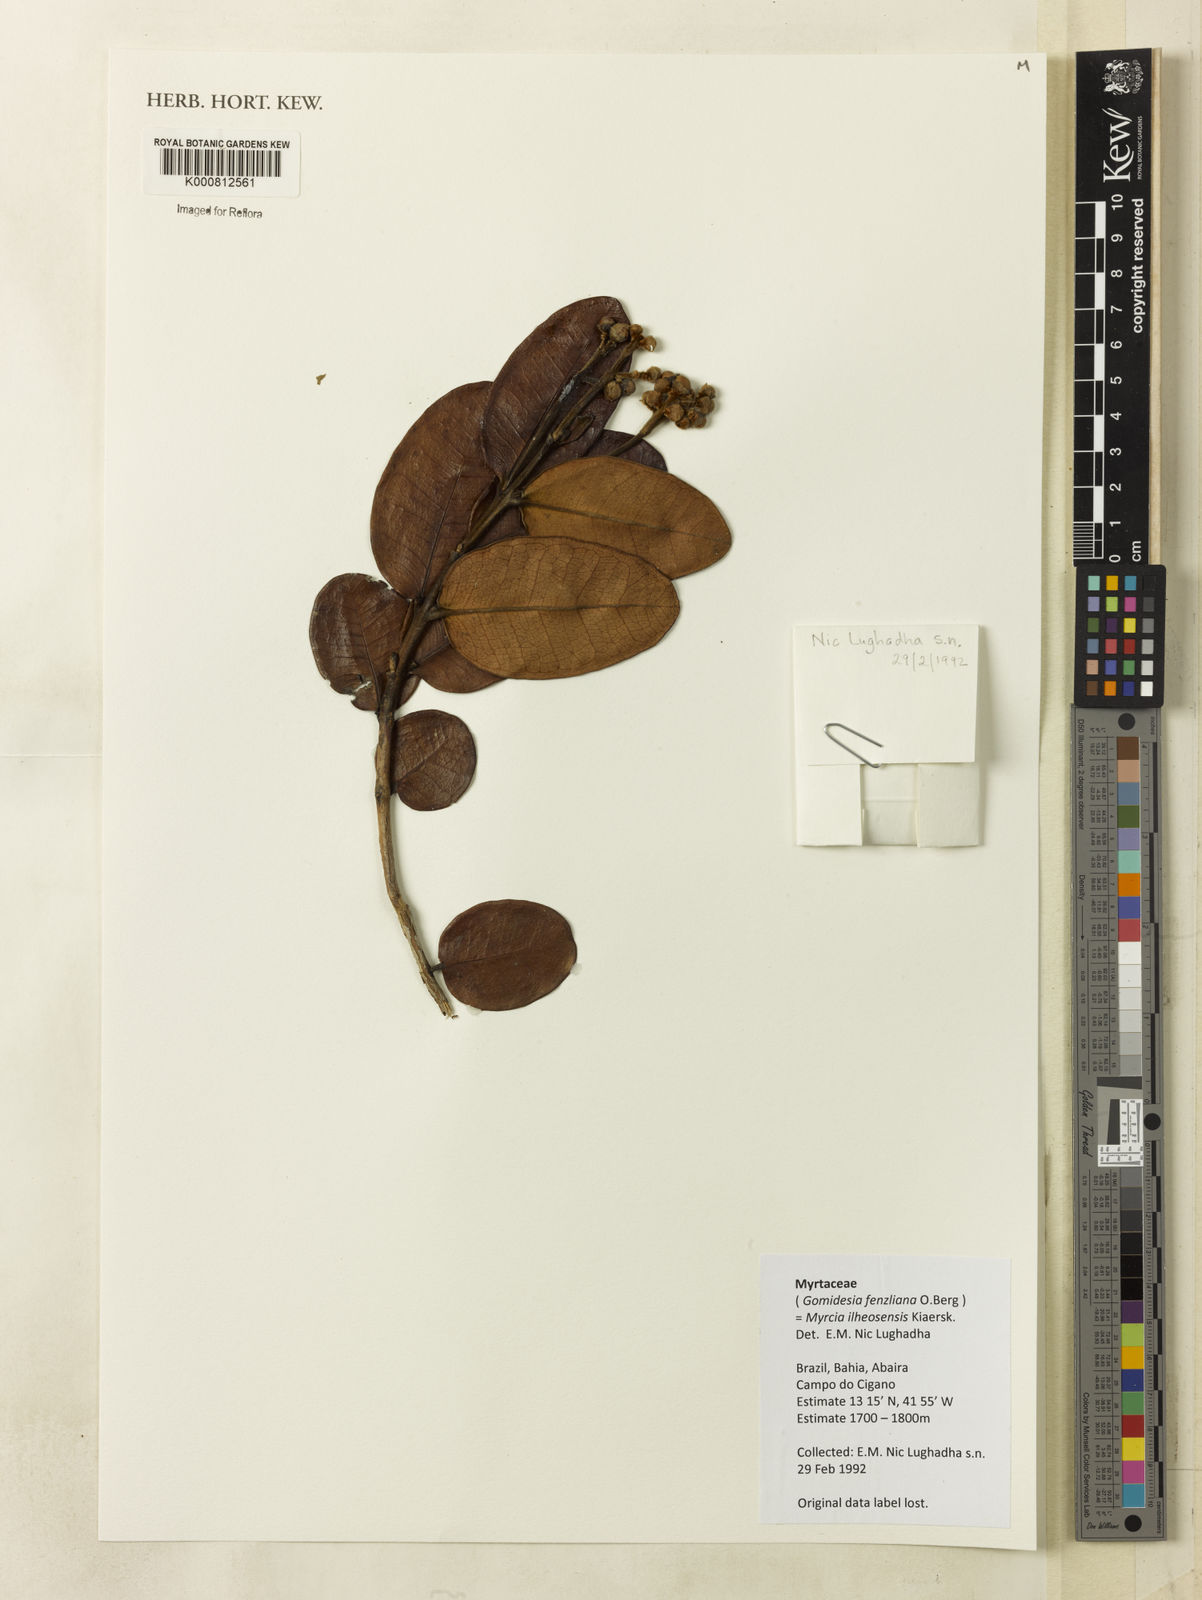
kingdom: Plantae
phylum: Tracheophyta
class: Magnoliopsida
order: Myrtales
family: Myrtaceae
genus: Myrcia
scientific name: Myrcia ilheosensis
